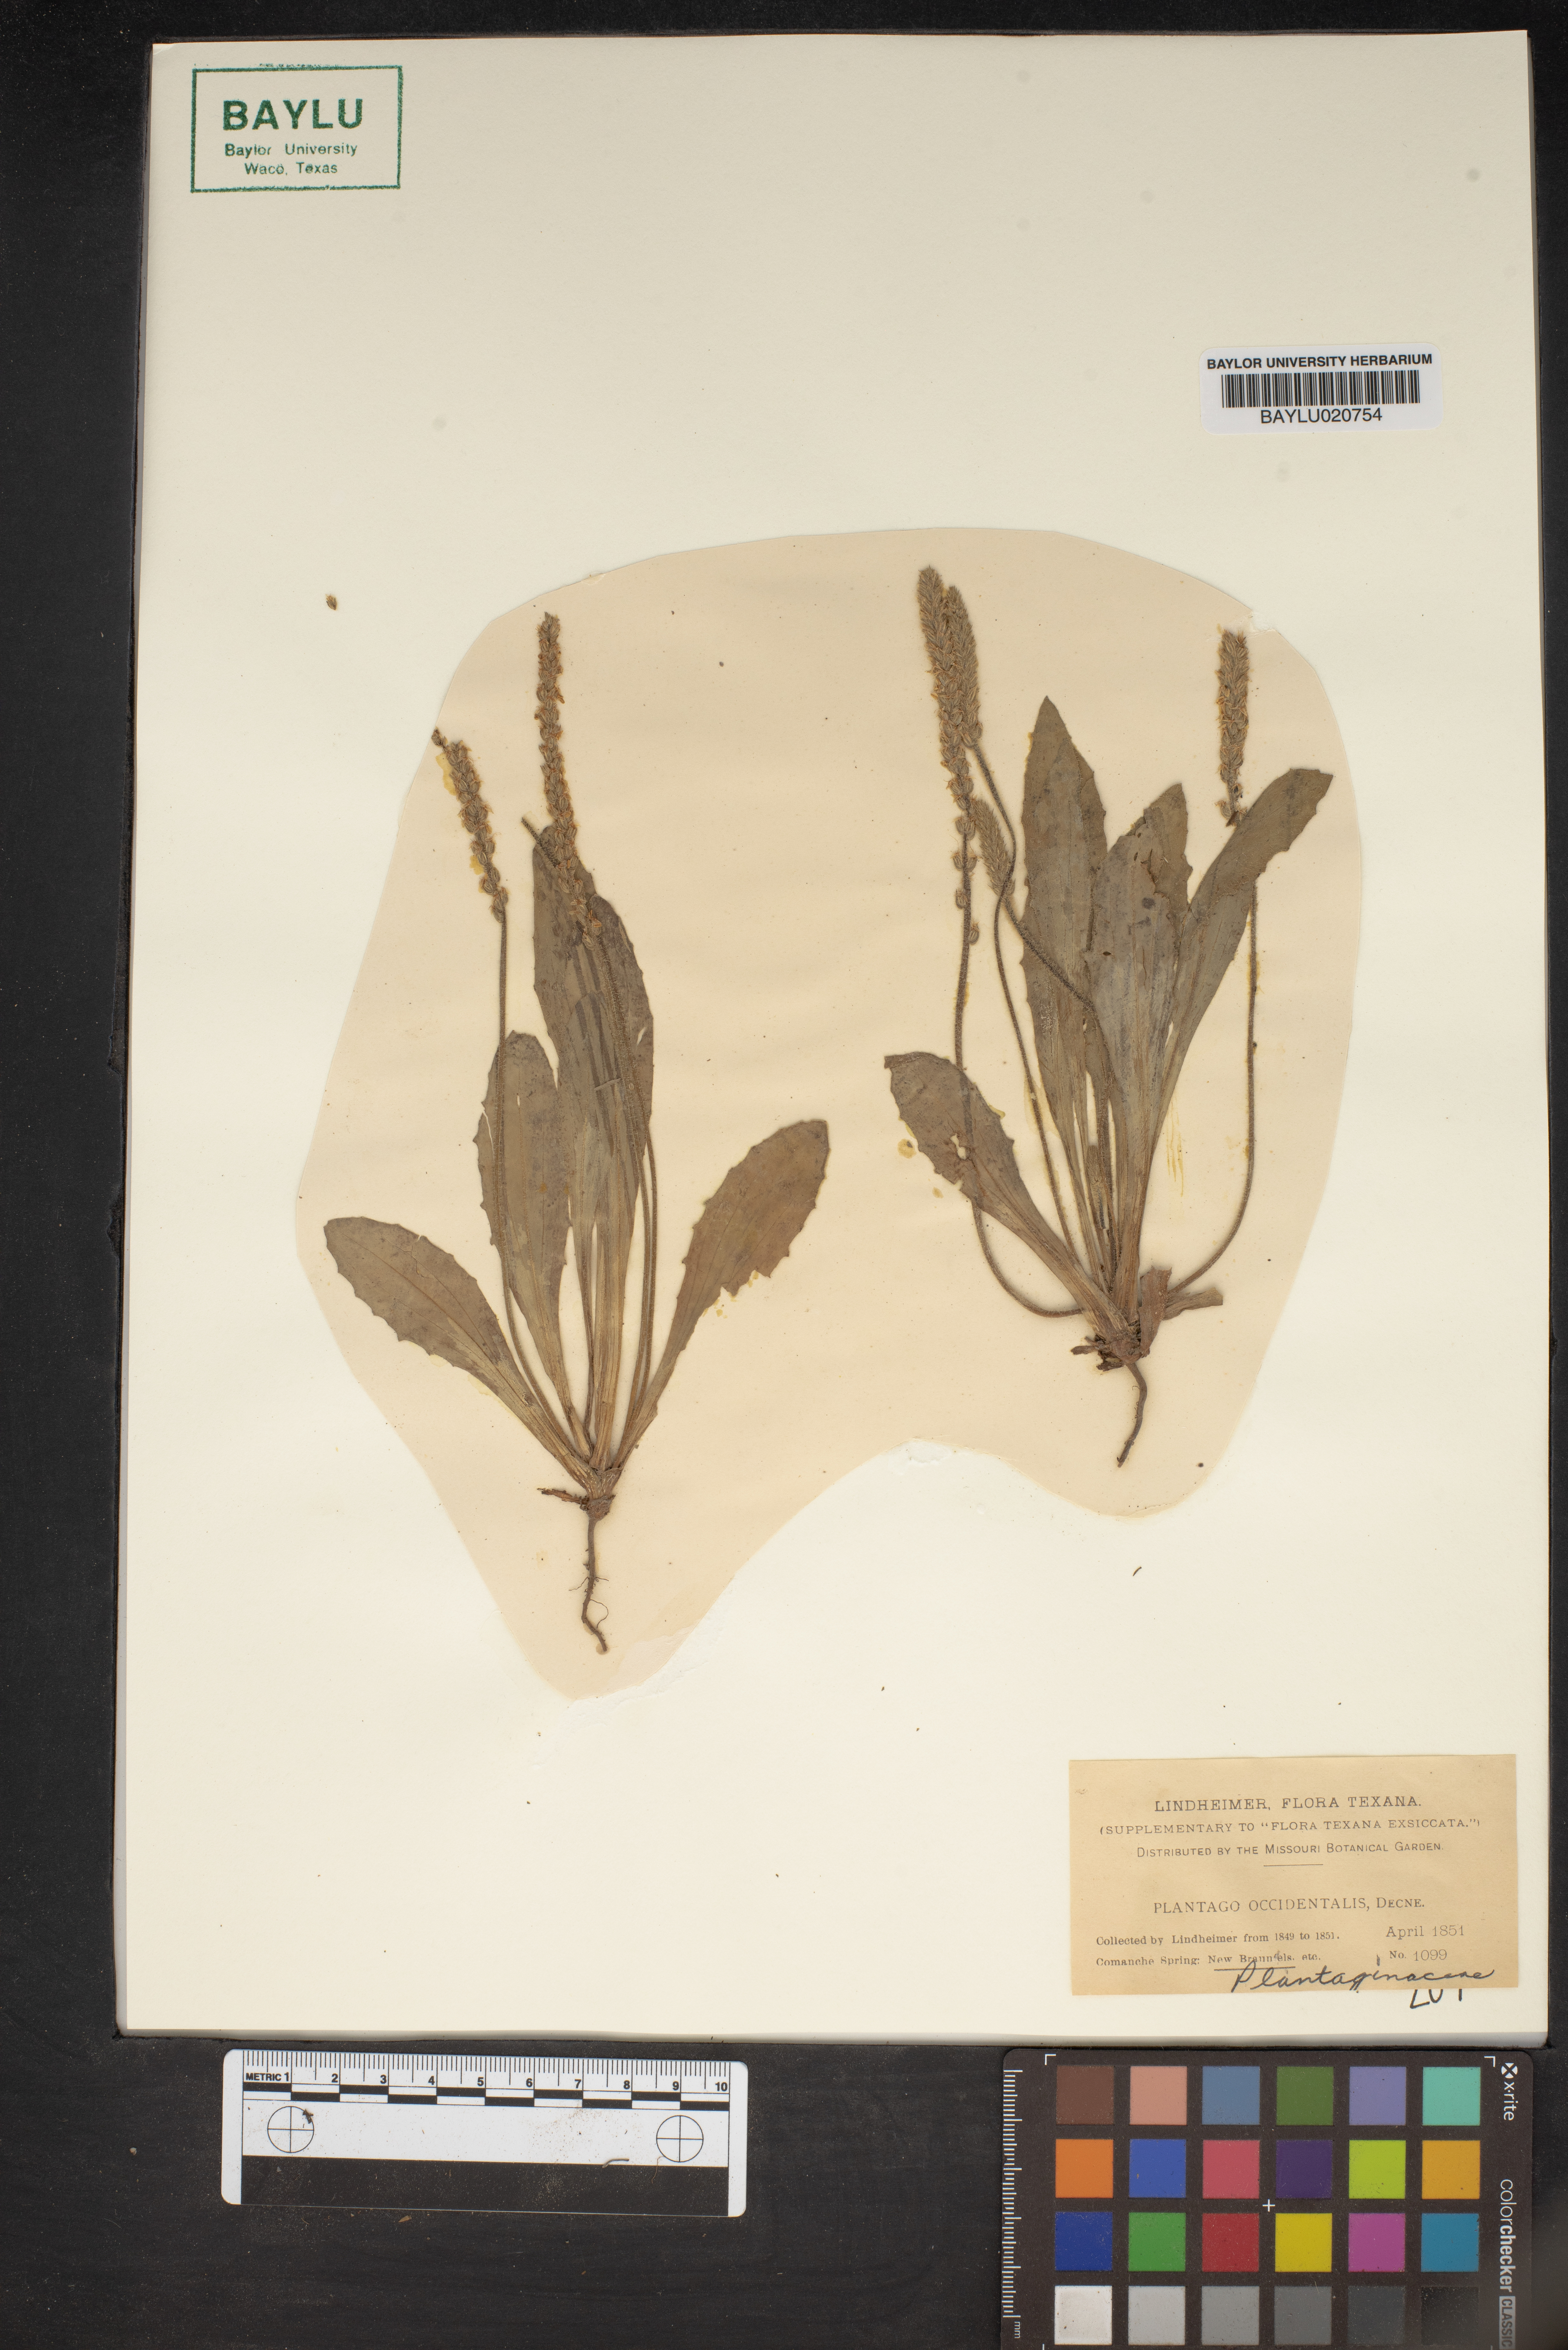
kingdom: Plantae
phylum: Tracheophyta
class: Magnoliopsida
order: Lamiales
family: Plantaginaceae
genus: Plantago
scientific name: Plantago myosuros
